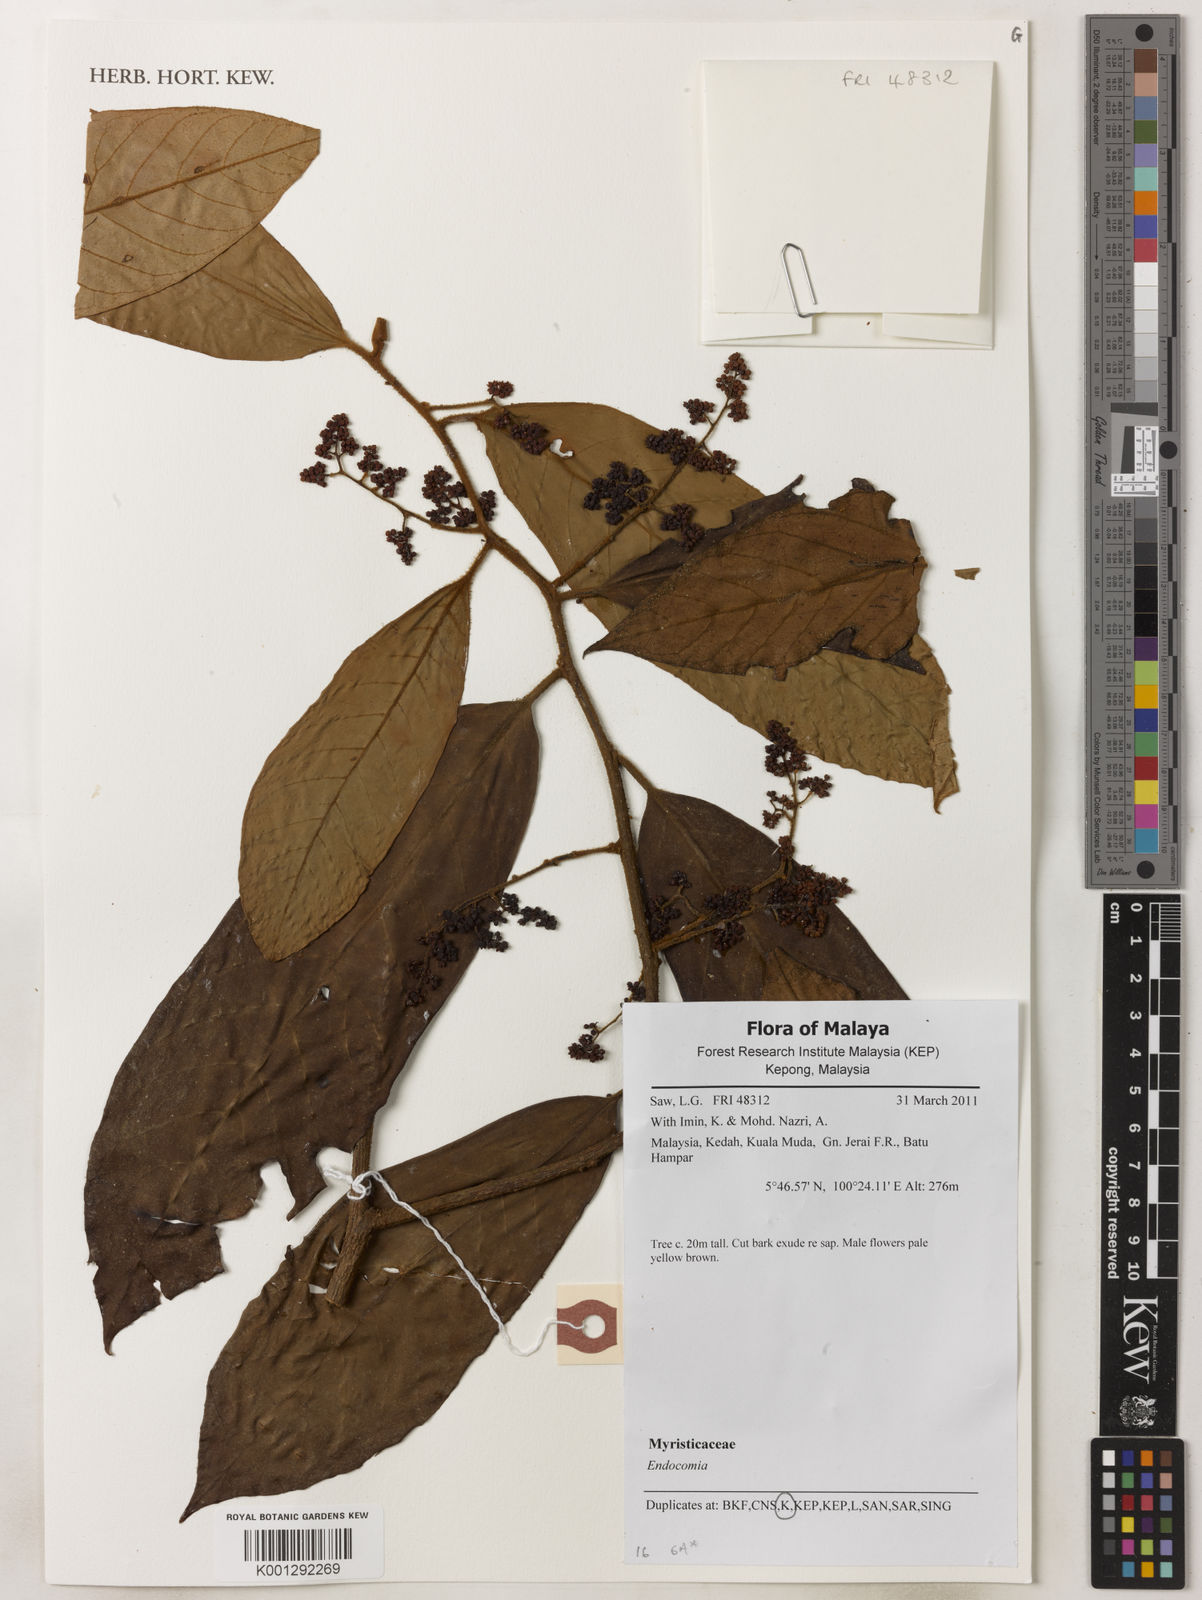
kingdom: Plantae
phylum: Tracheophyta
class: Magnoliopsida
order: Magnoliales
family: Myristicaceae
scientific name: Myristicaceae
